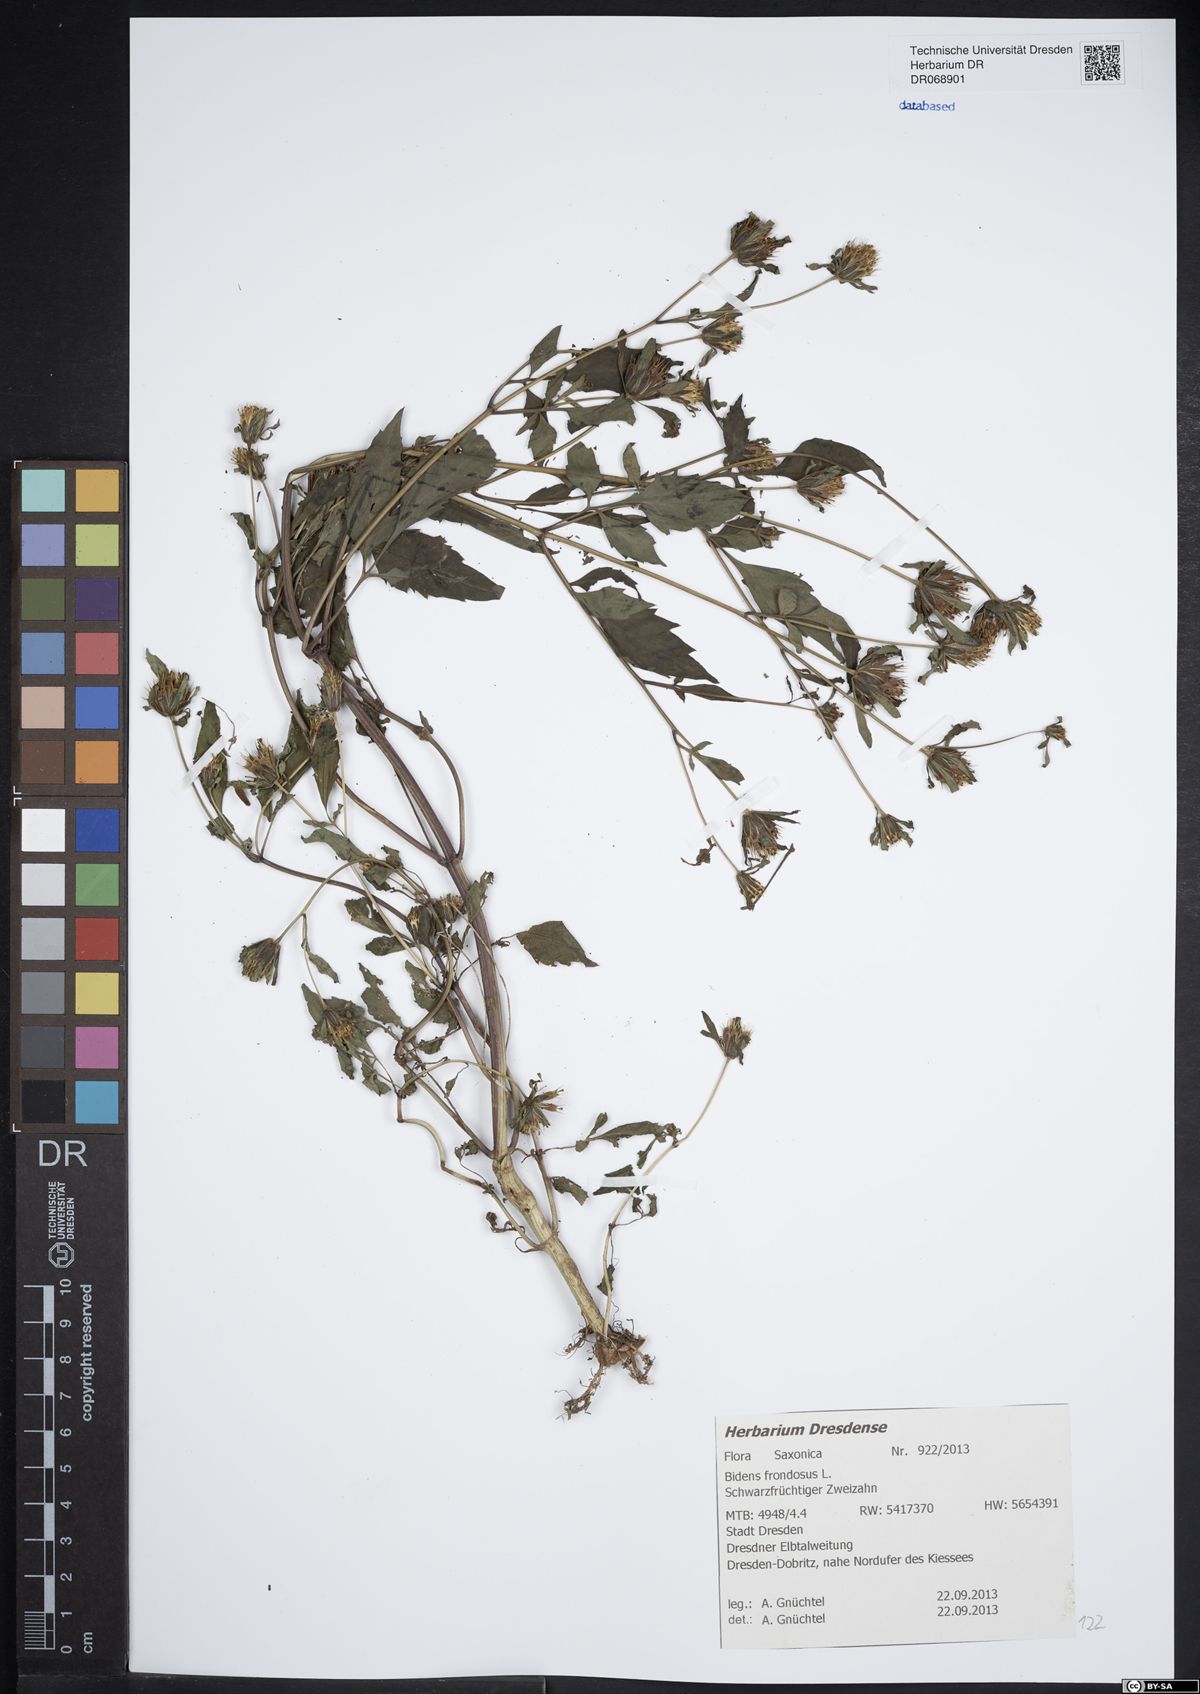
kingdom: Plantae
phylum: Tracheophyta
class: Magnoliopsida
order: Asterales
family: Asteraceae
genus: Bidens
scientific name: Bidens frondosa
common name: Beggarticks
